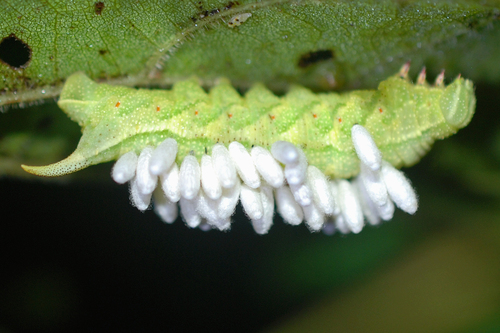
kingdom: Animalia
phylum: Arthropoda
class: Insecta
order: Lepidoptera
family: Sphingidae
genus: Darapsa
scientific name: Darapsa myron
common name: Hog sphinx
